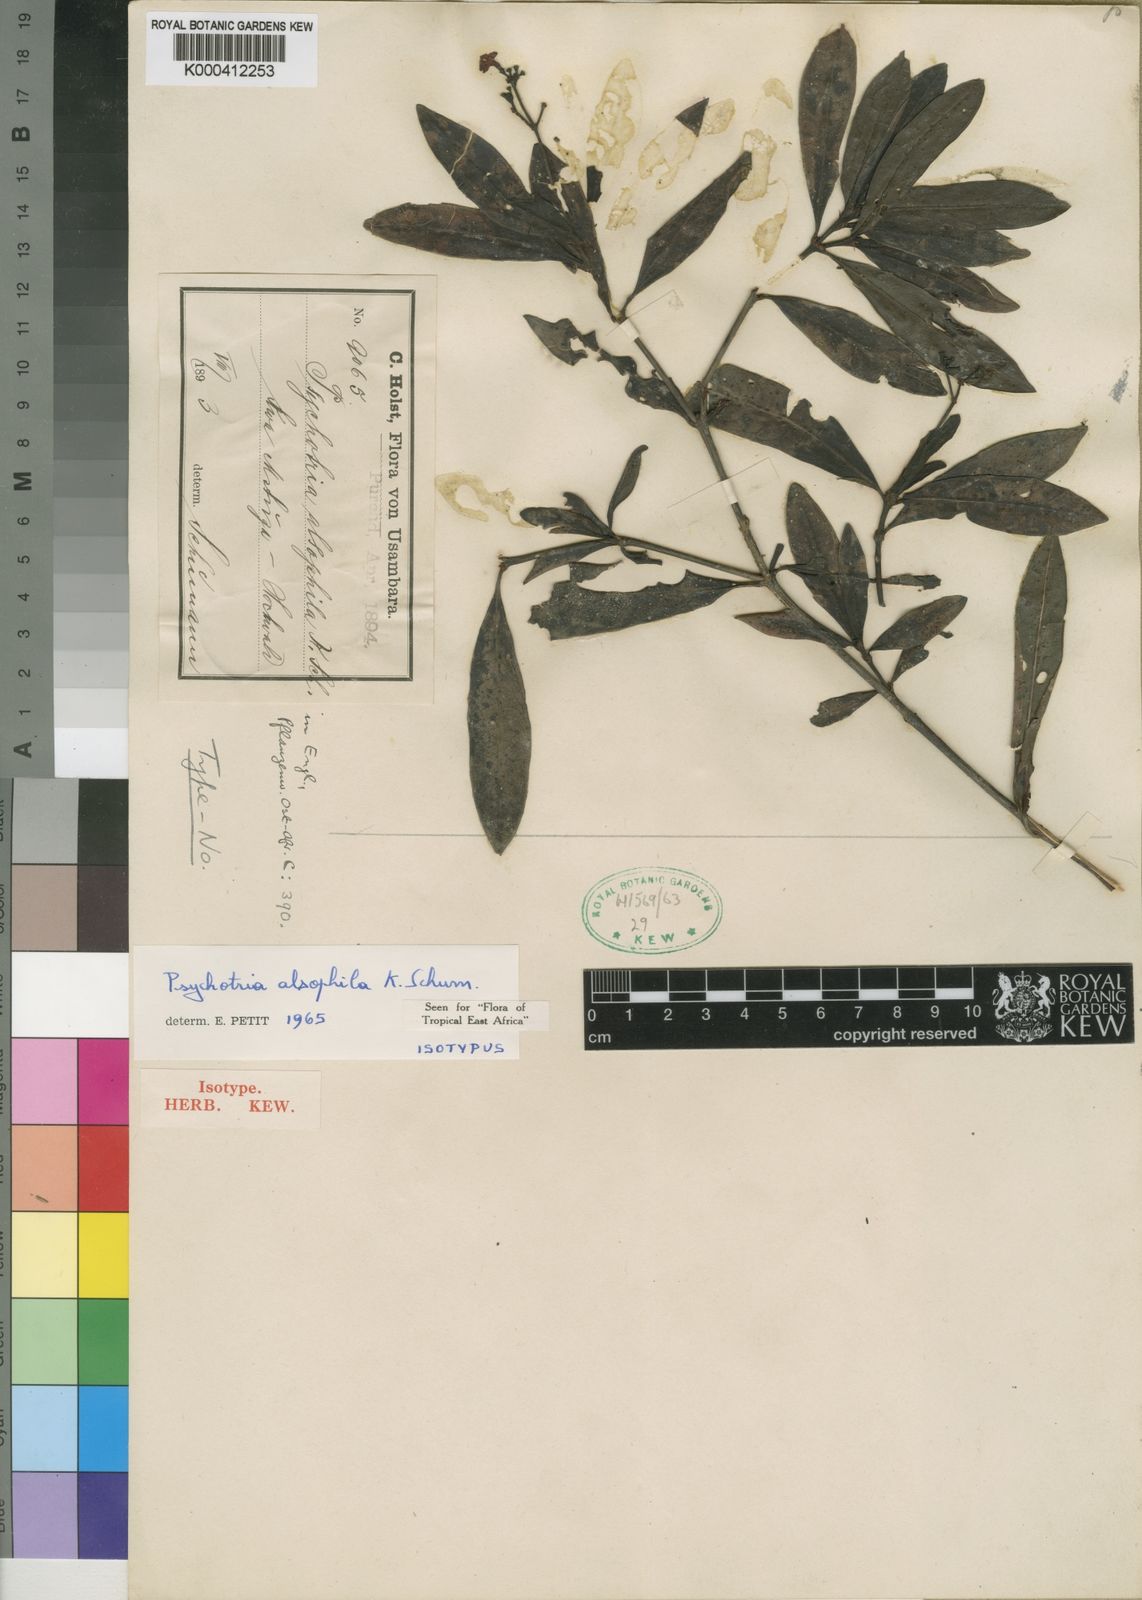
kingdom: Plantae
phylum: Tracheophyta
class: Magnoliopsida
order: Gentianales
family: Rubiaceae
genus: Psychotria
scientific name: Psychotria alsophila
